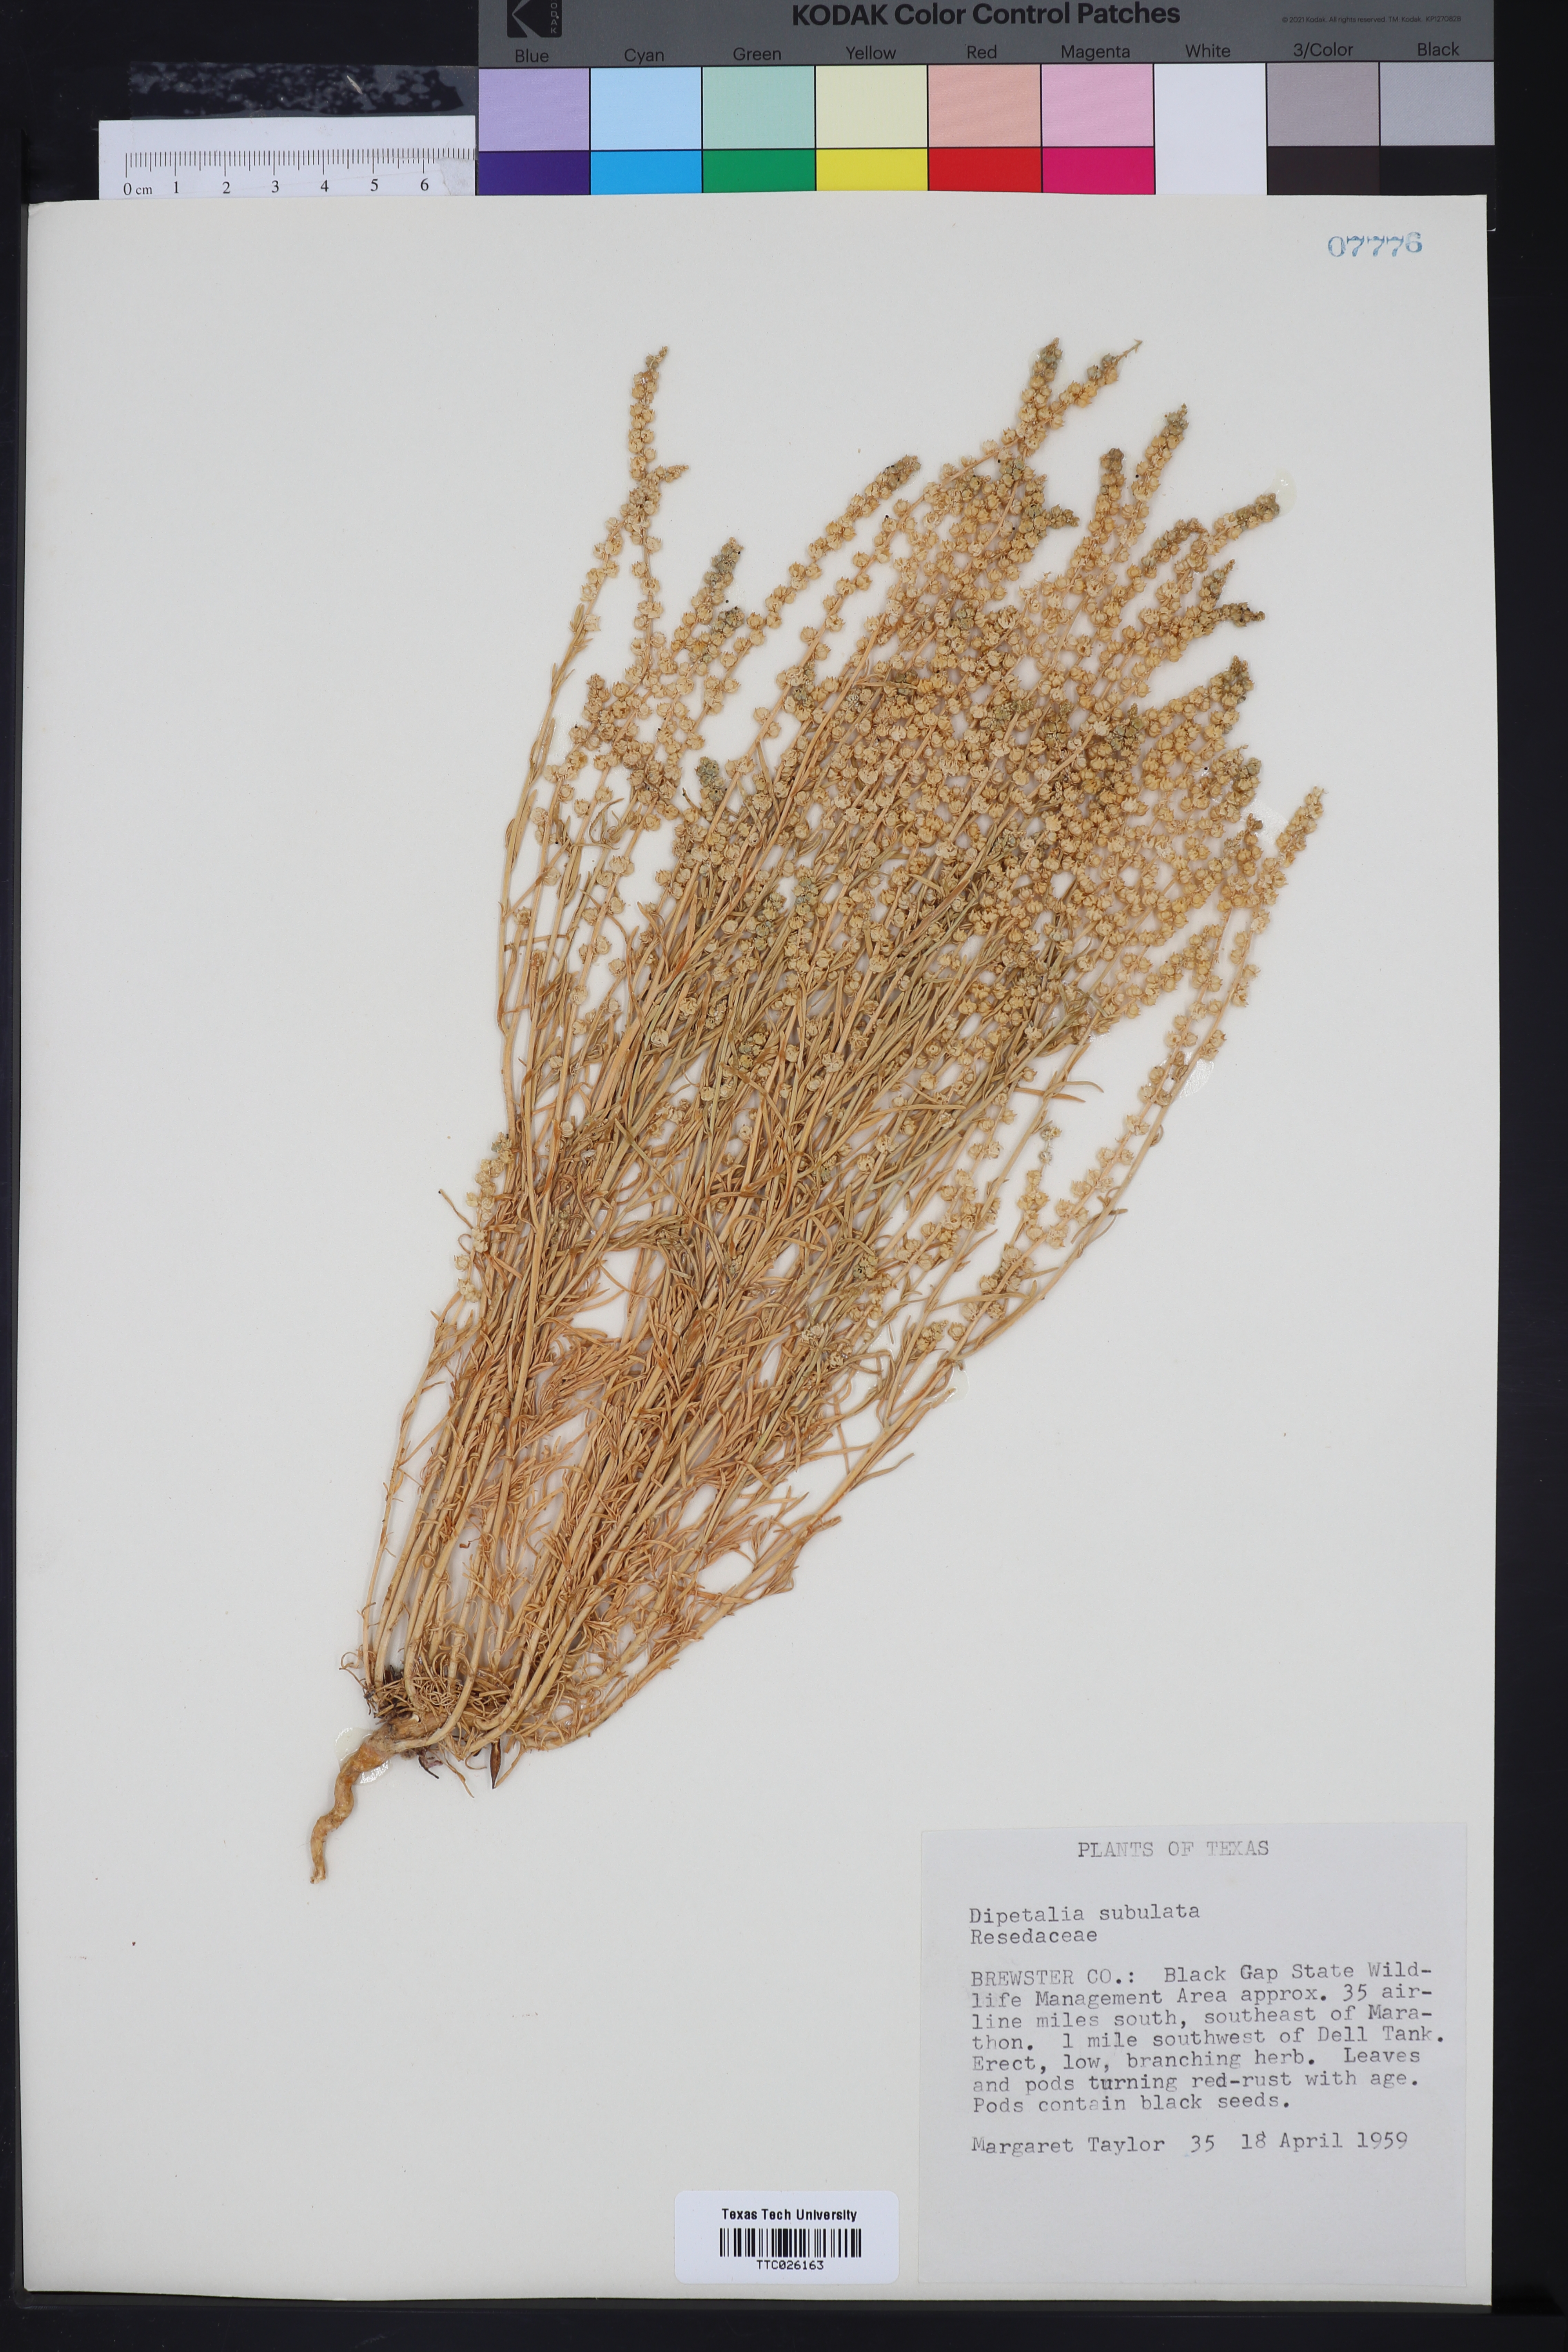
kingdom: Plantae
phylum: Tracheophyta
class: Magnoliopsida
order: Brassicales
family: Resedaceae
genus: Oligomeris
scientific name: Oligomeris linifolia
